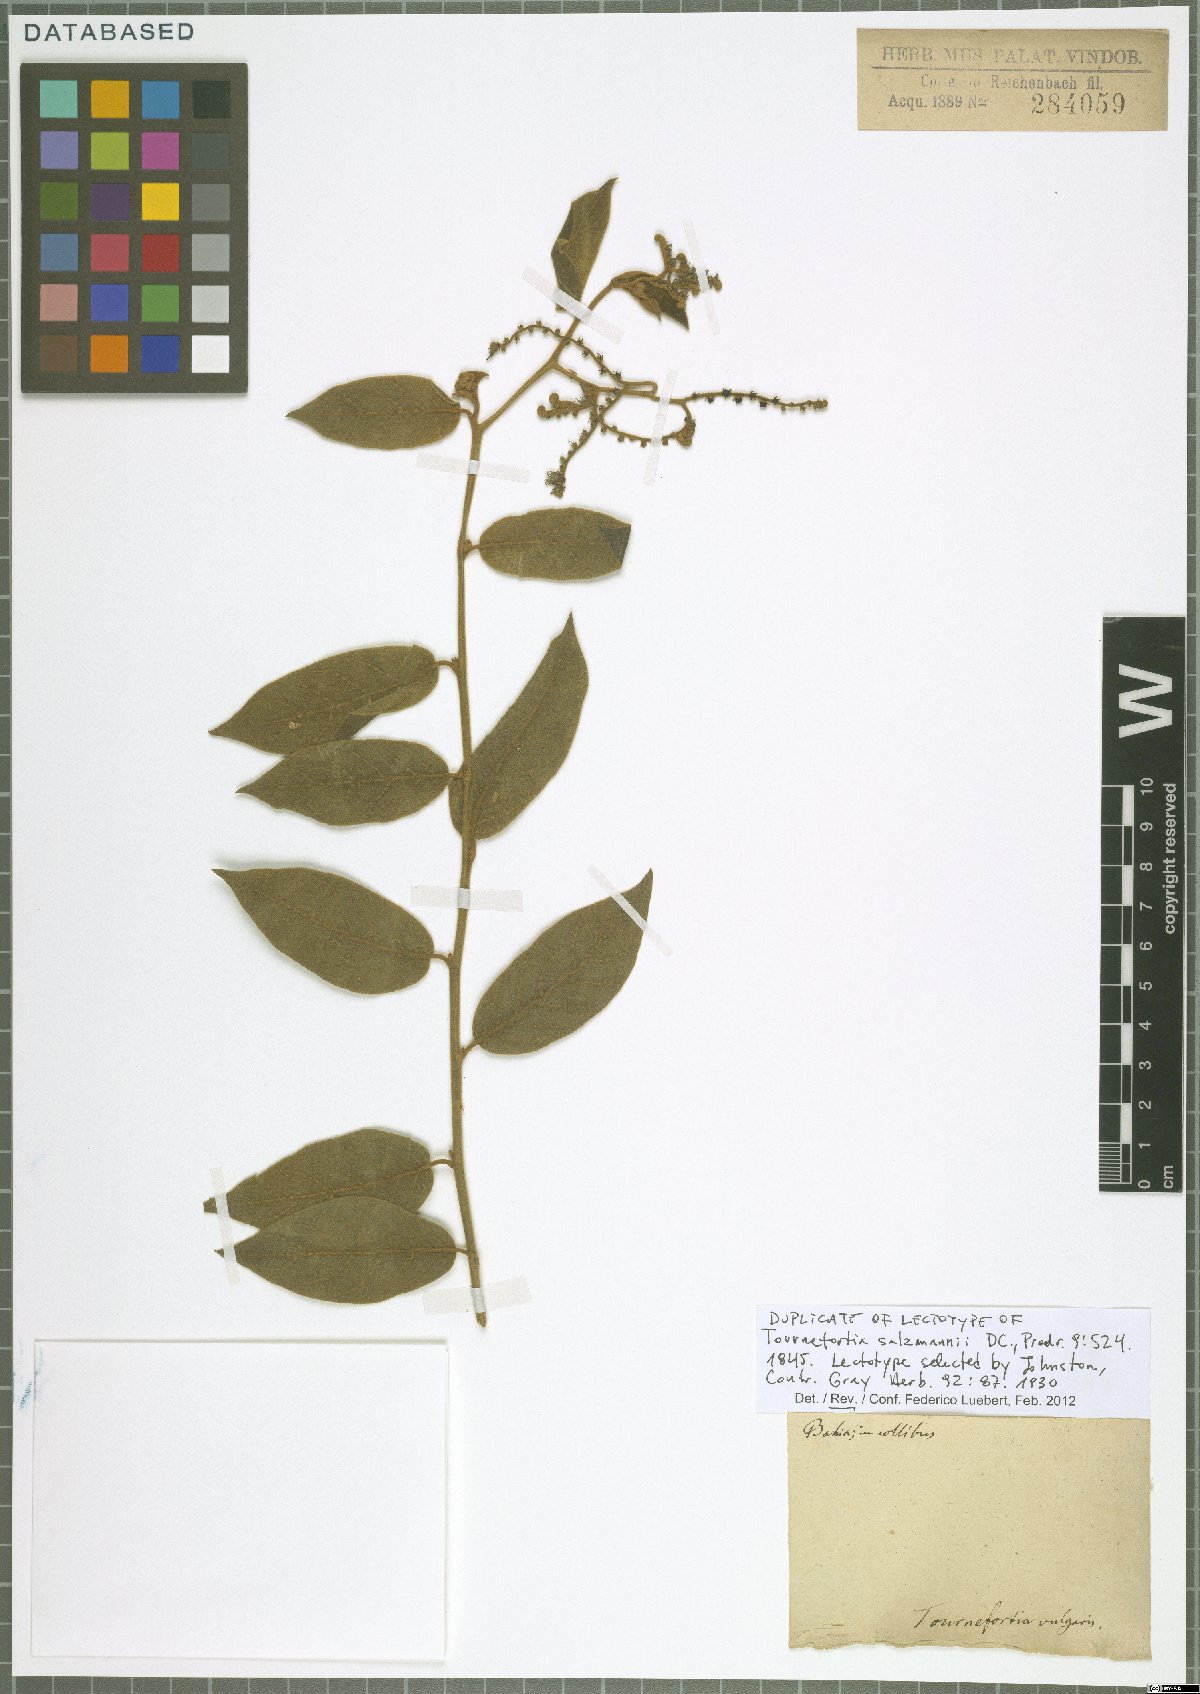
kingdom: Plantae
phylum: Tracheophyta
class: Magnoliopsida
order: Boraginales
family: Heliotropiaceae
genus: Myriopus
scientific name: Myriopus salzmannii
